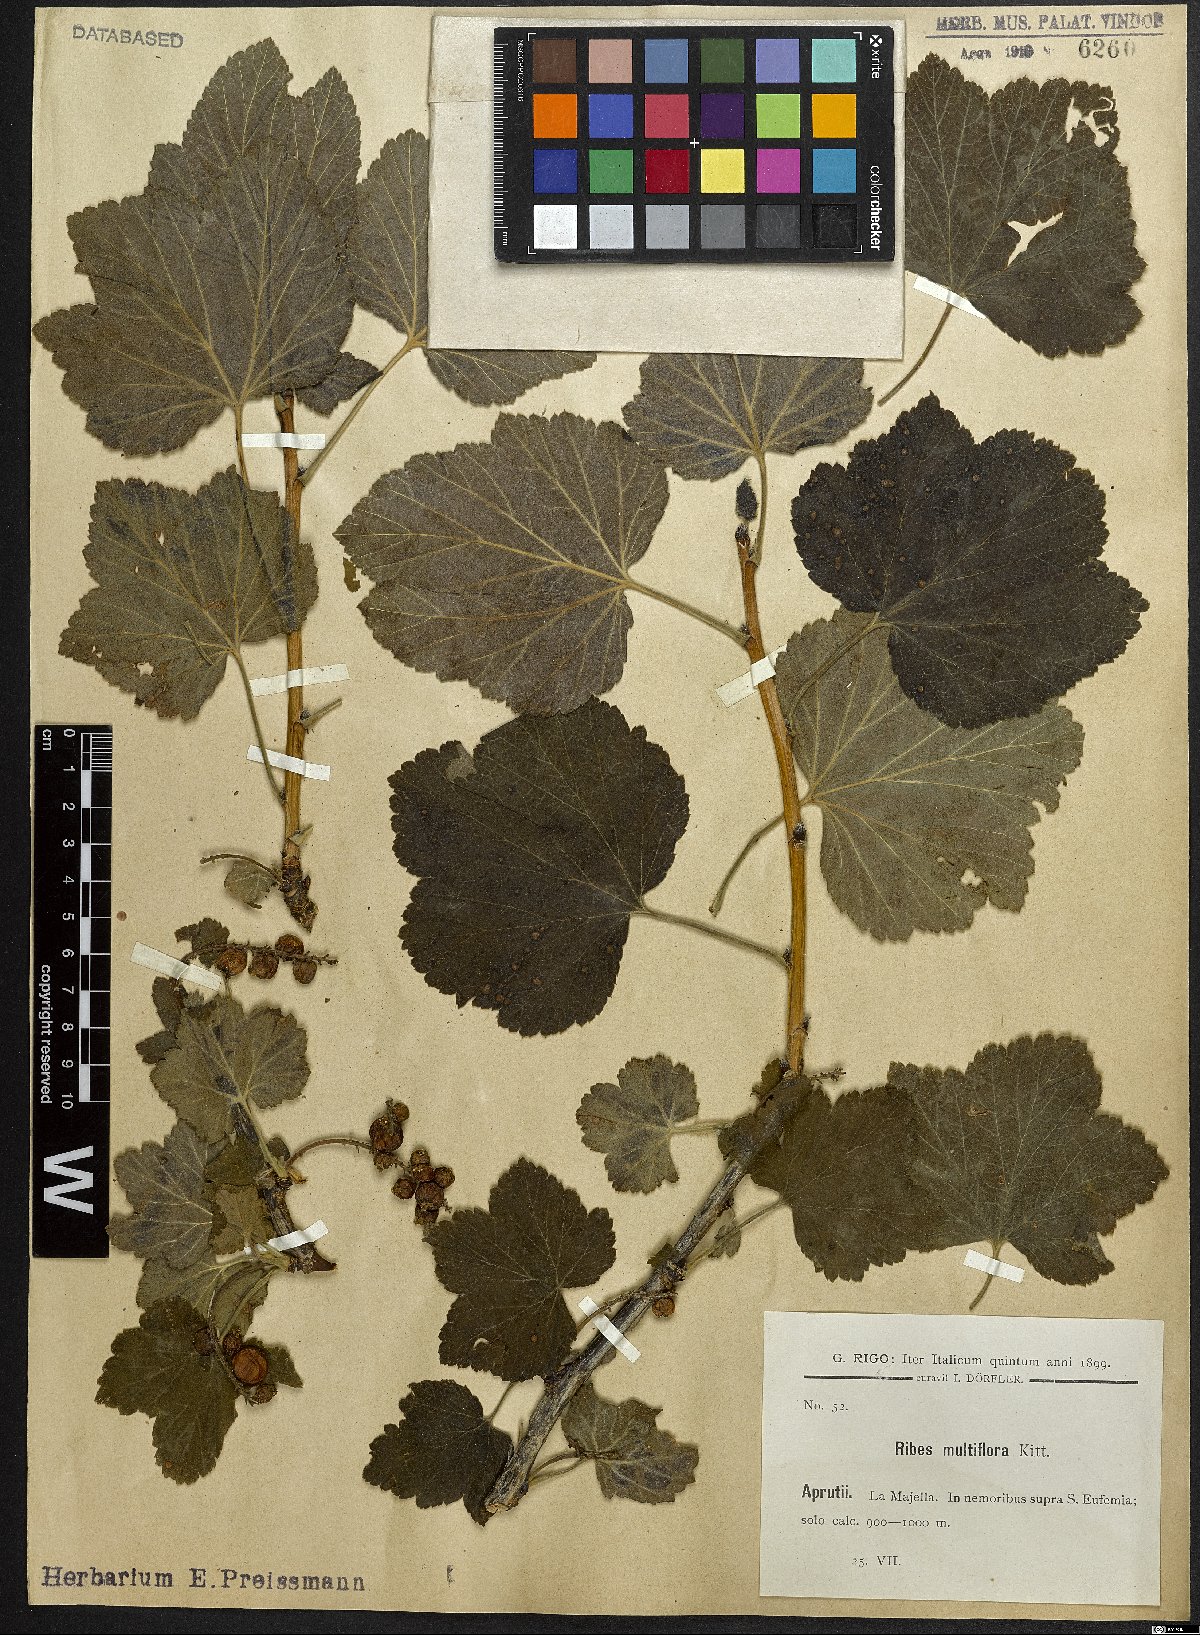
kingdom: Plantae
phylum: Tracheophyta
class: Magnoliopsida
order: Saxifragales
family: Grossulariaceae
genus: Ribes
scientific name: Ribes multiflorum
